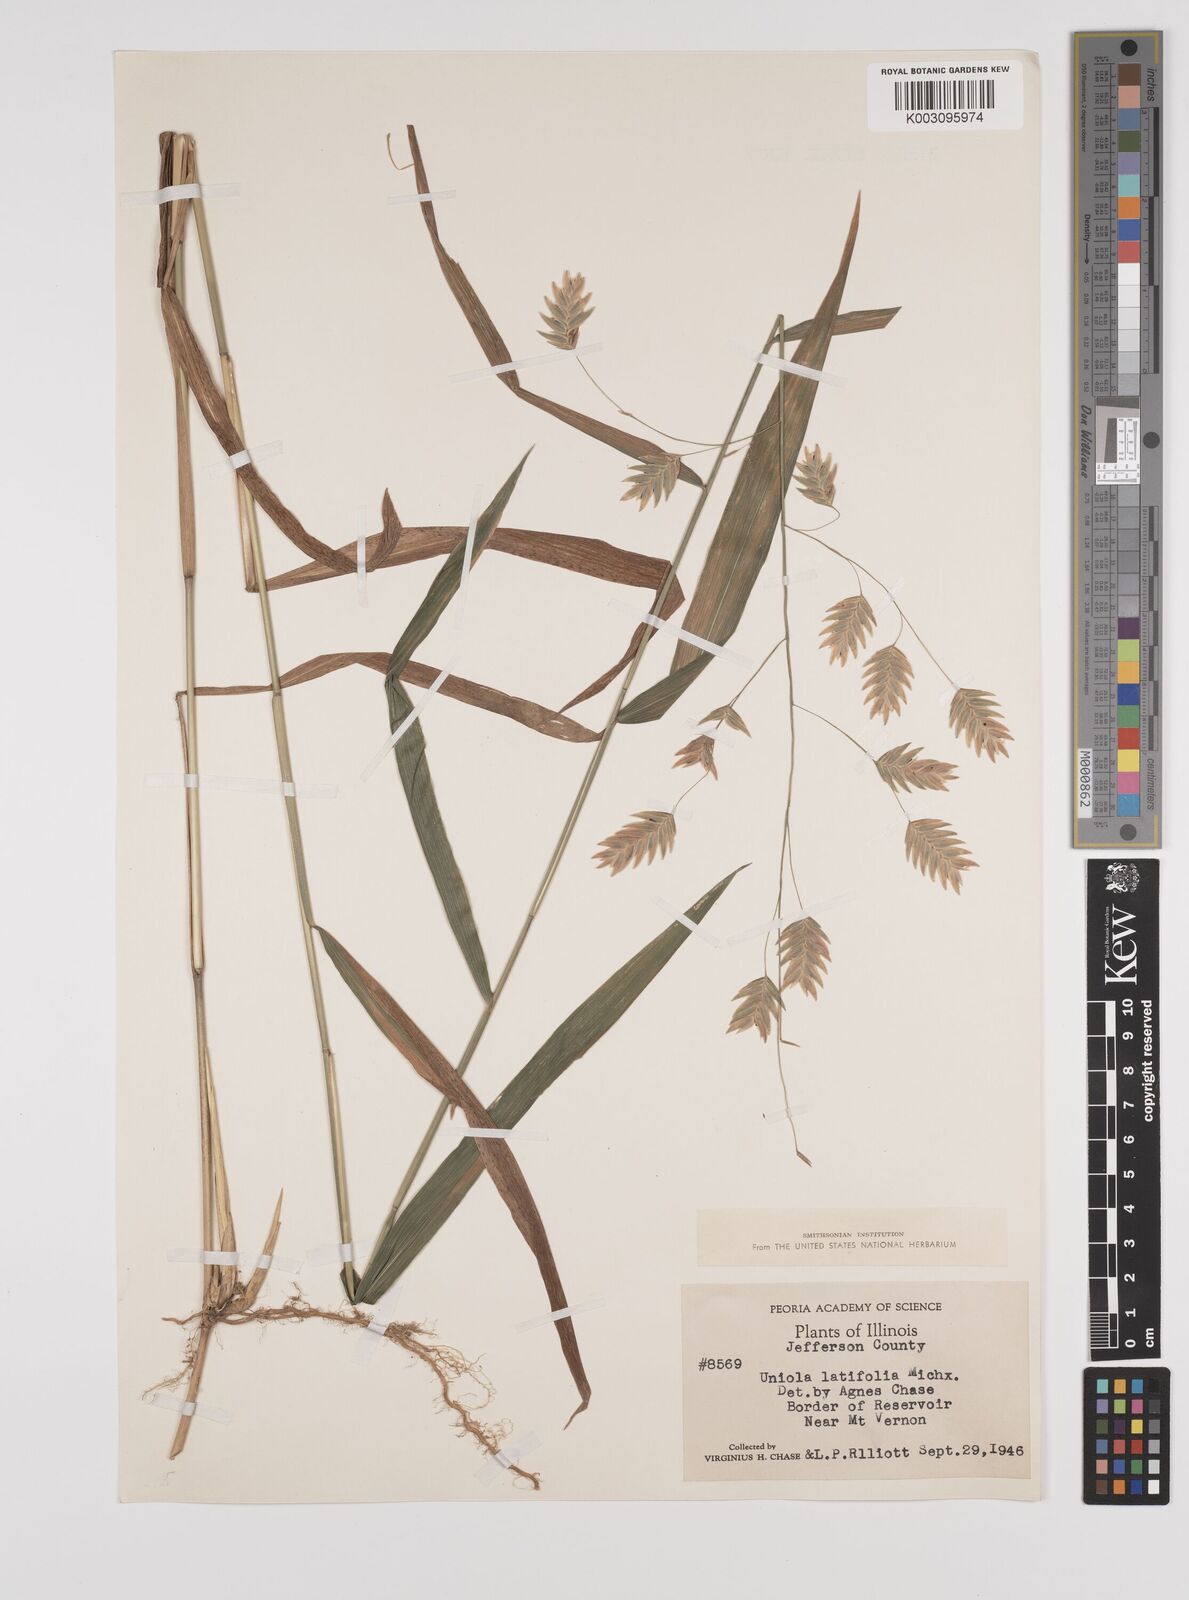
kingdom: Plantae
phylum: Tracheophyta
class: Liliopsida
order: Poales
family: Poaceae
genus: Chasmanthium
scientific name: Chasmanthium latifolium
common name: Broad-leaved chasmanthium
